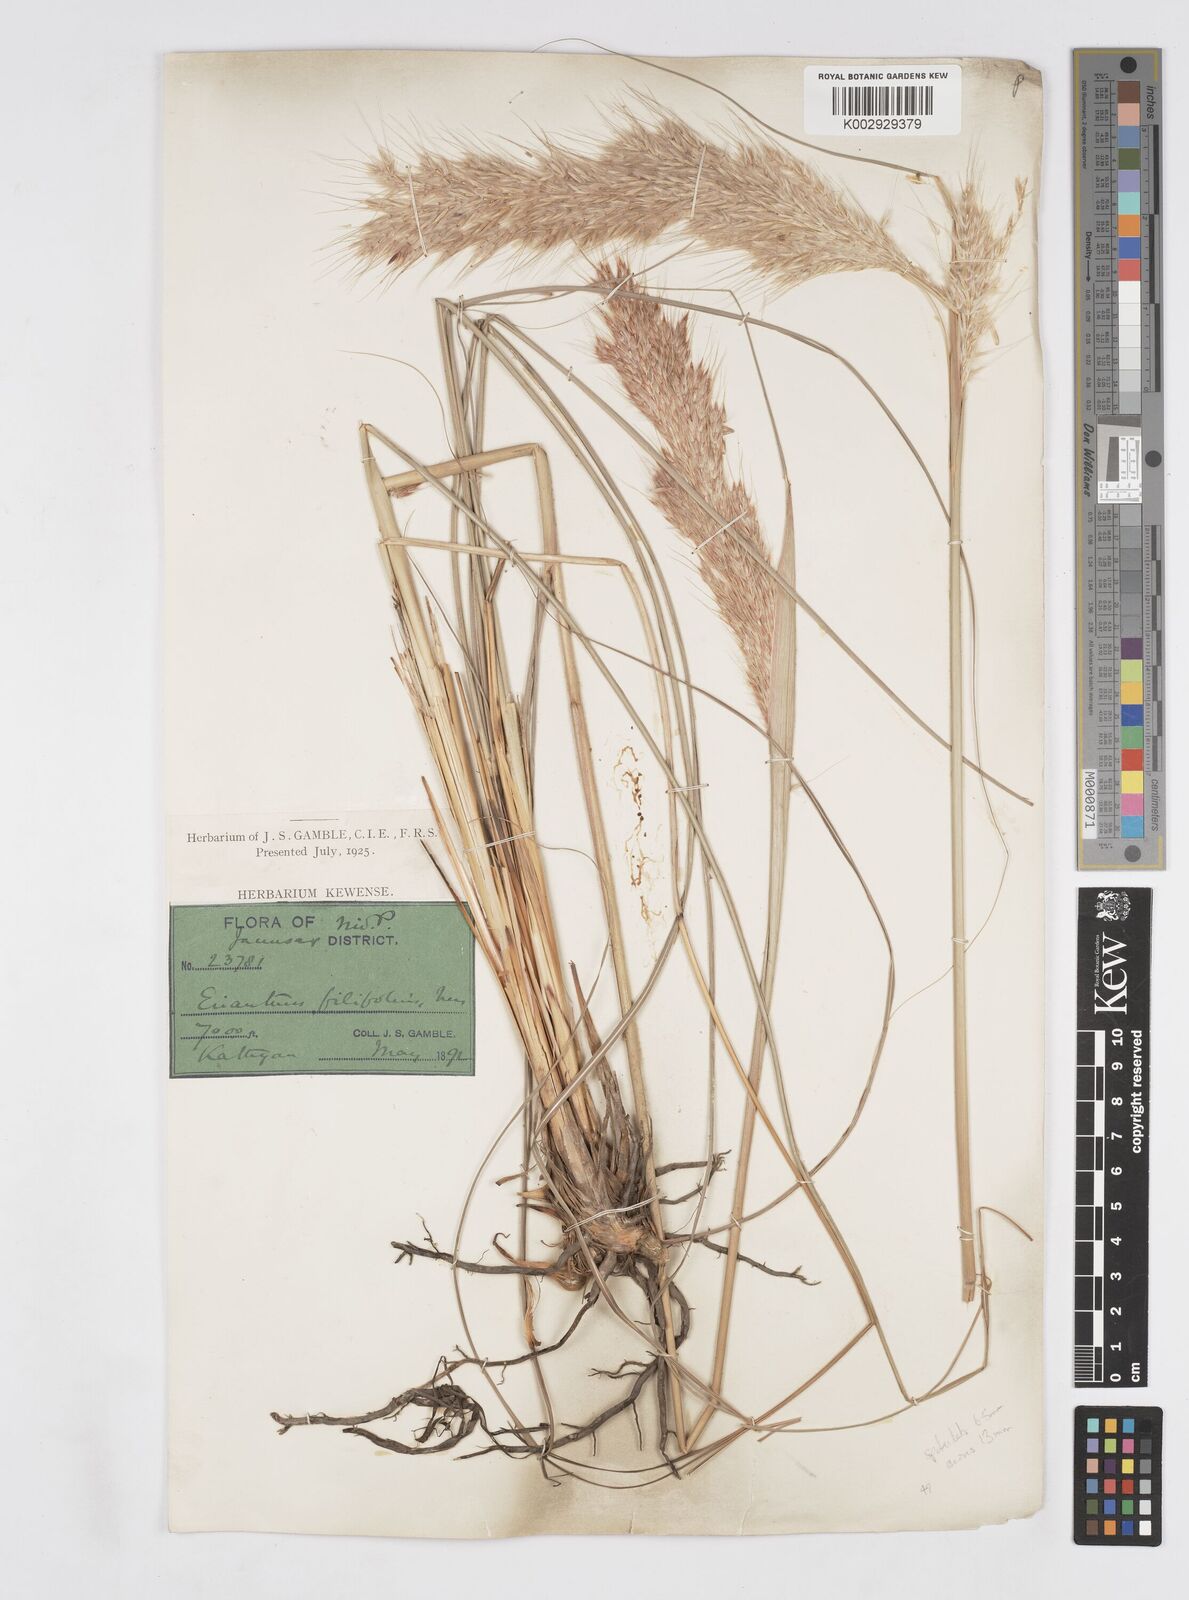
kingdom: Plantae
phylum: Tracheophyta
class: Liliopsida
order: Poales
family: Poaceae
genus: Saccharum
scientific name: Saccharum filifolium
